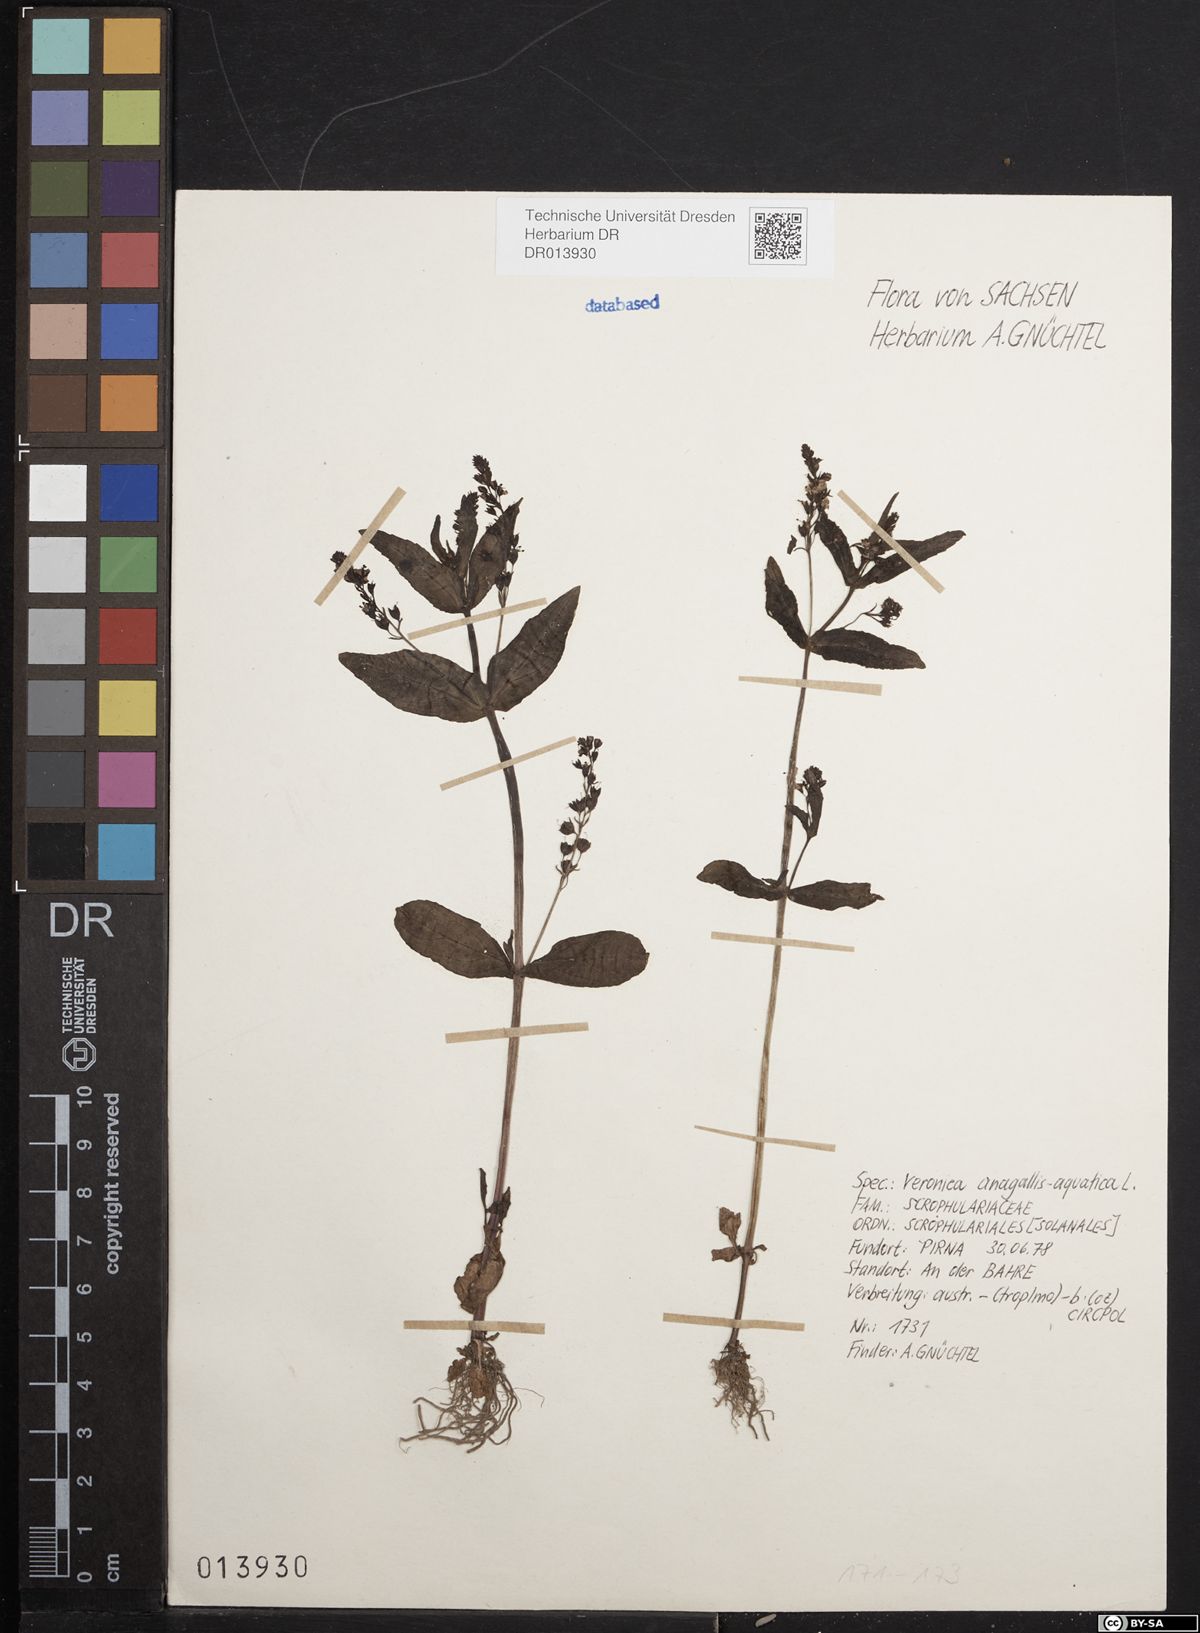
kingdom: Plantae
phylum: Tracheophyta
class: Magnoliopsida
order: Lamiales
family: Plantaginaceae
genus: Veronica
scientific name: Veronica anagallis-aquatica
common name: Water speedwell
